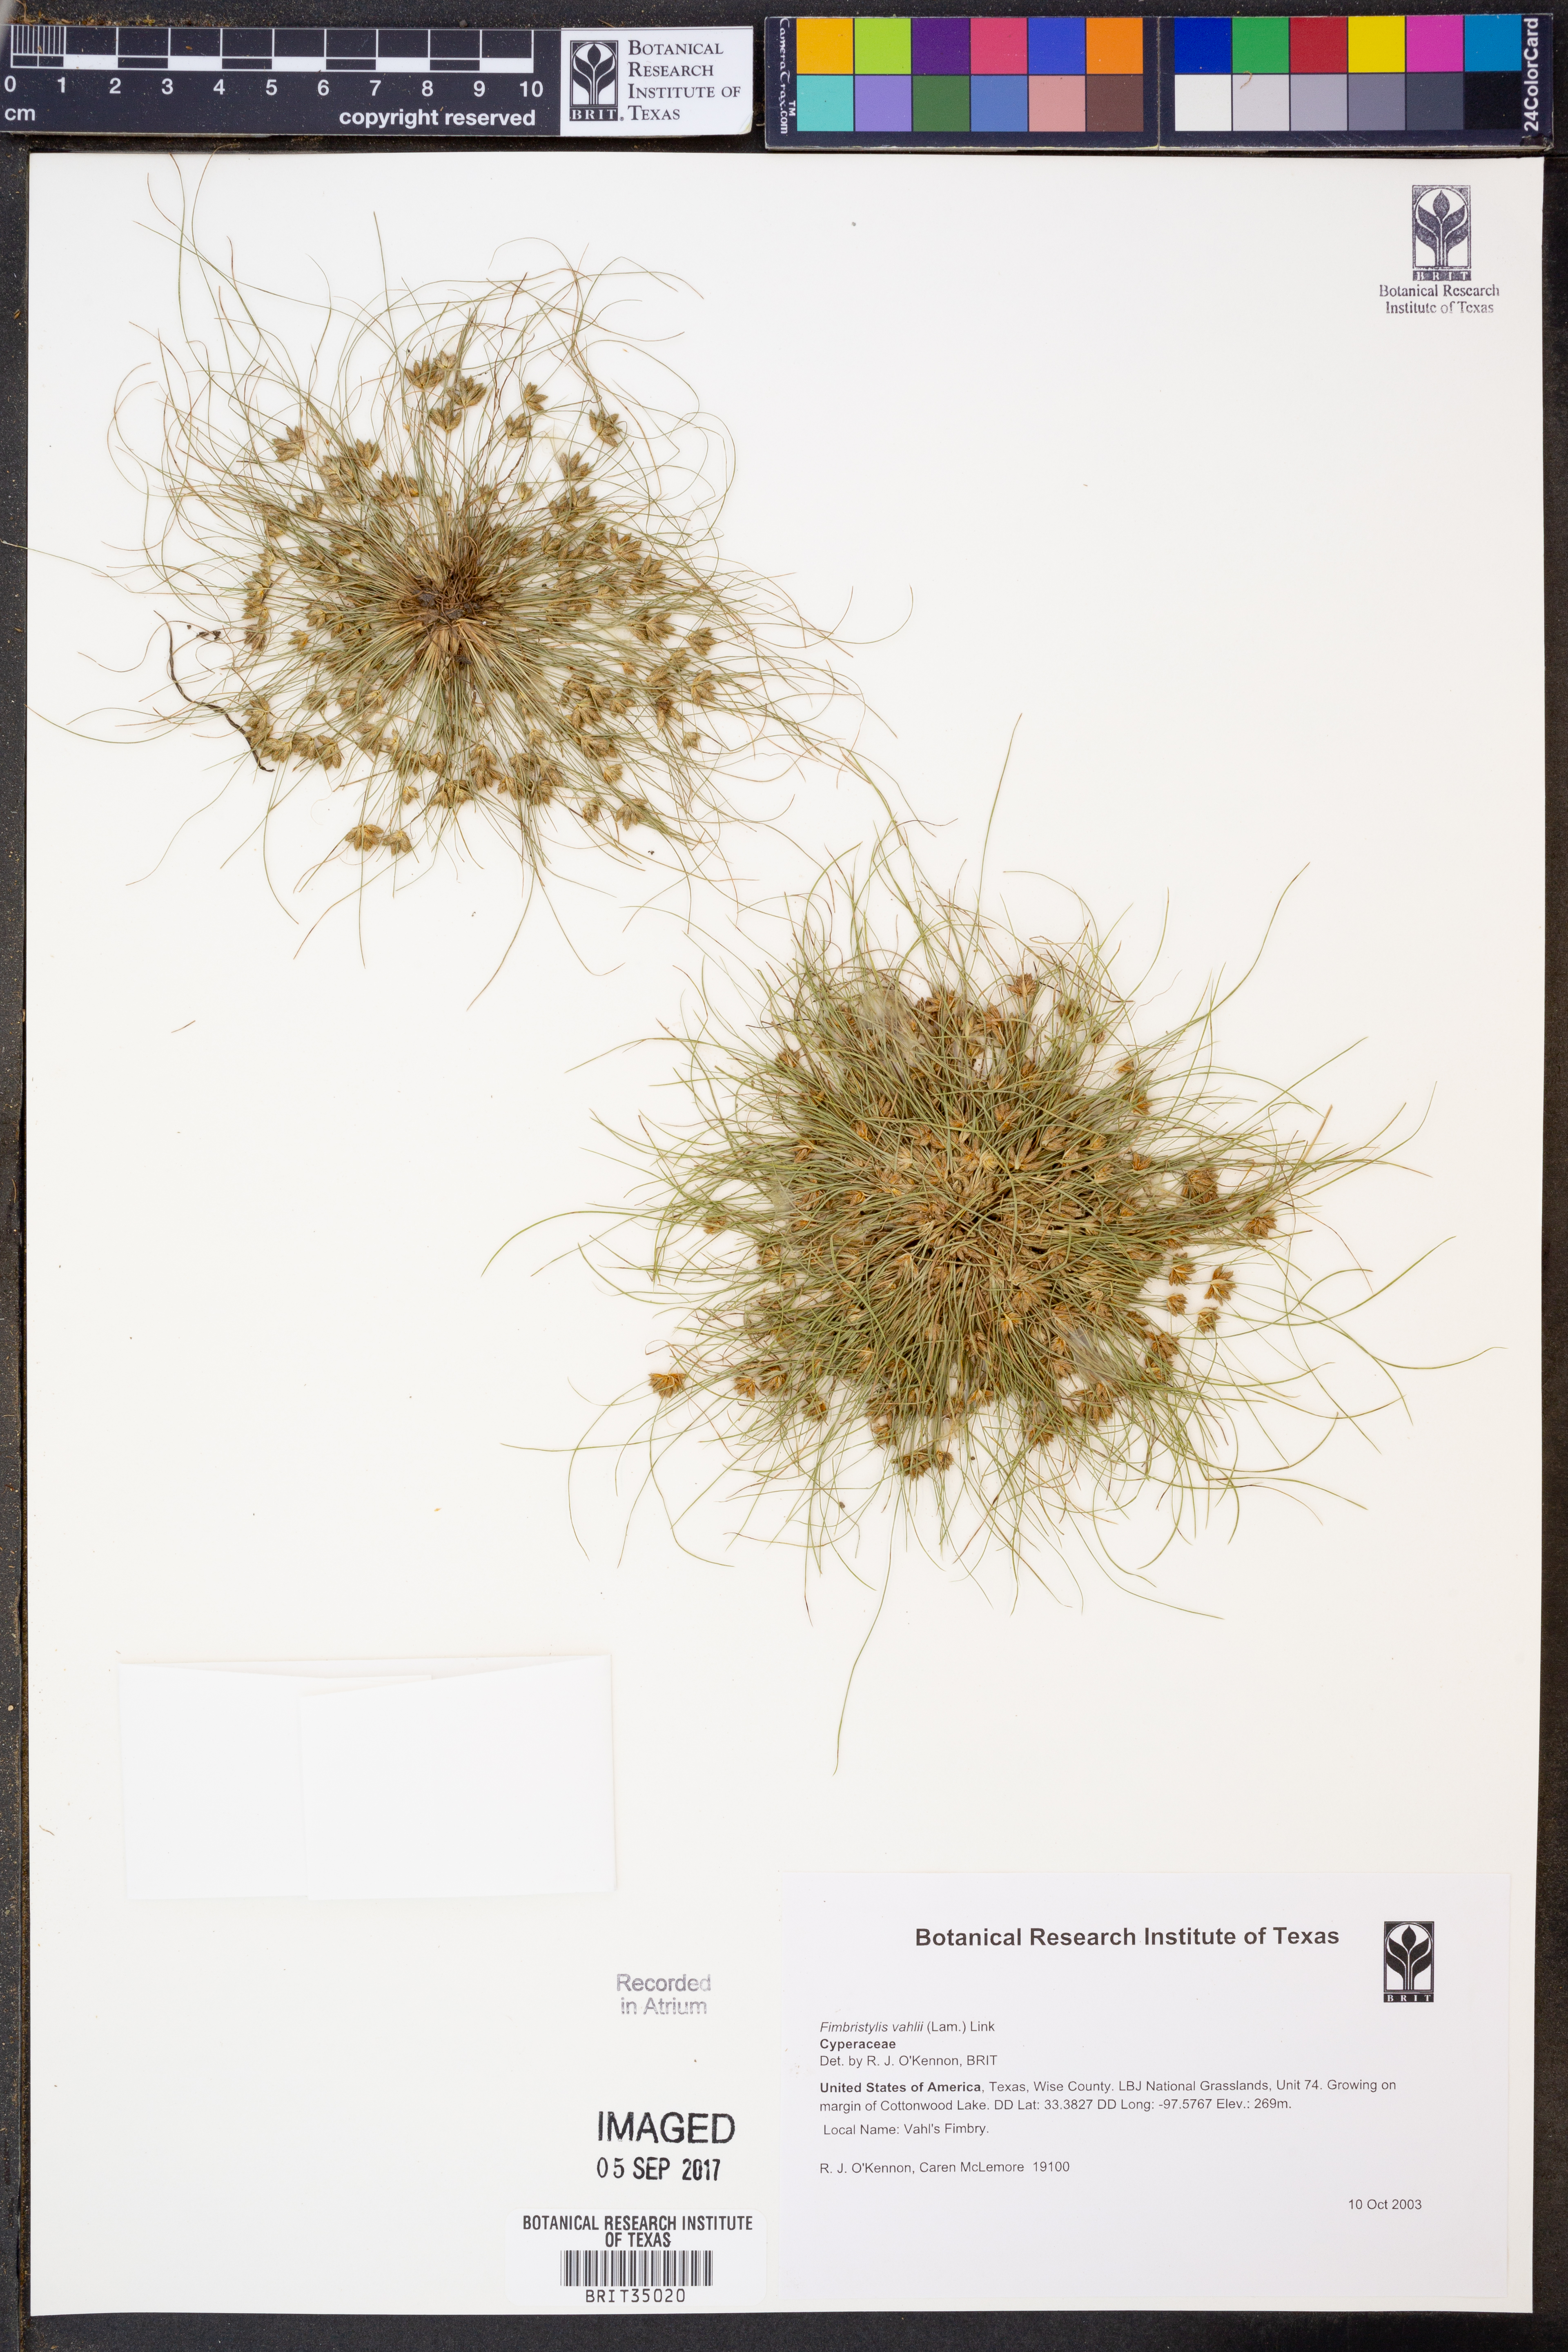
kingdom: Plantae
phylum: Tracheophyta
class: Liliopsida
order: Poales
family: Cyperaceae
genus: Fimbristylis
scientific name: Fimbristylis vahlii
